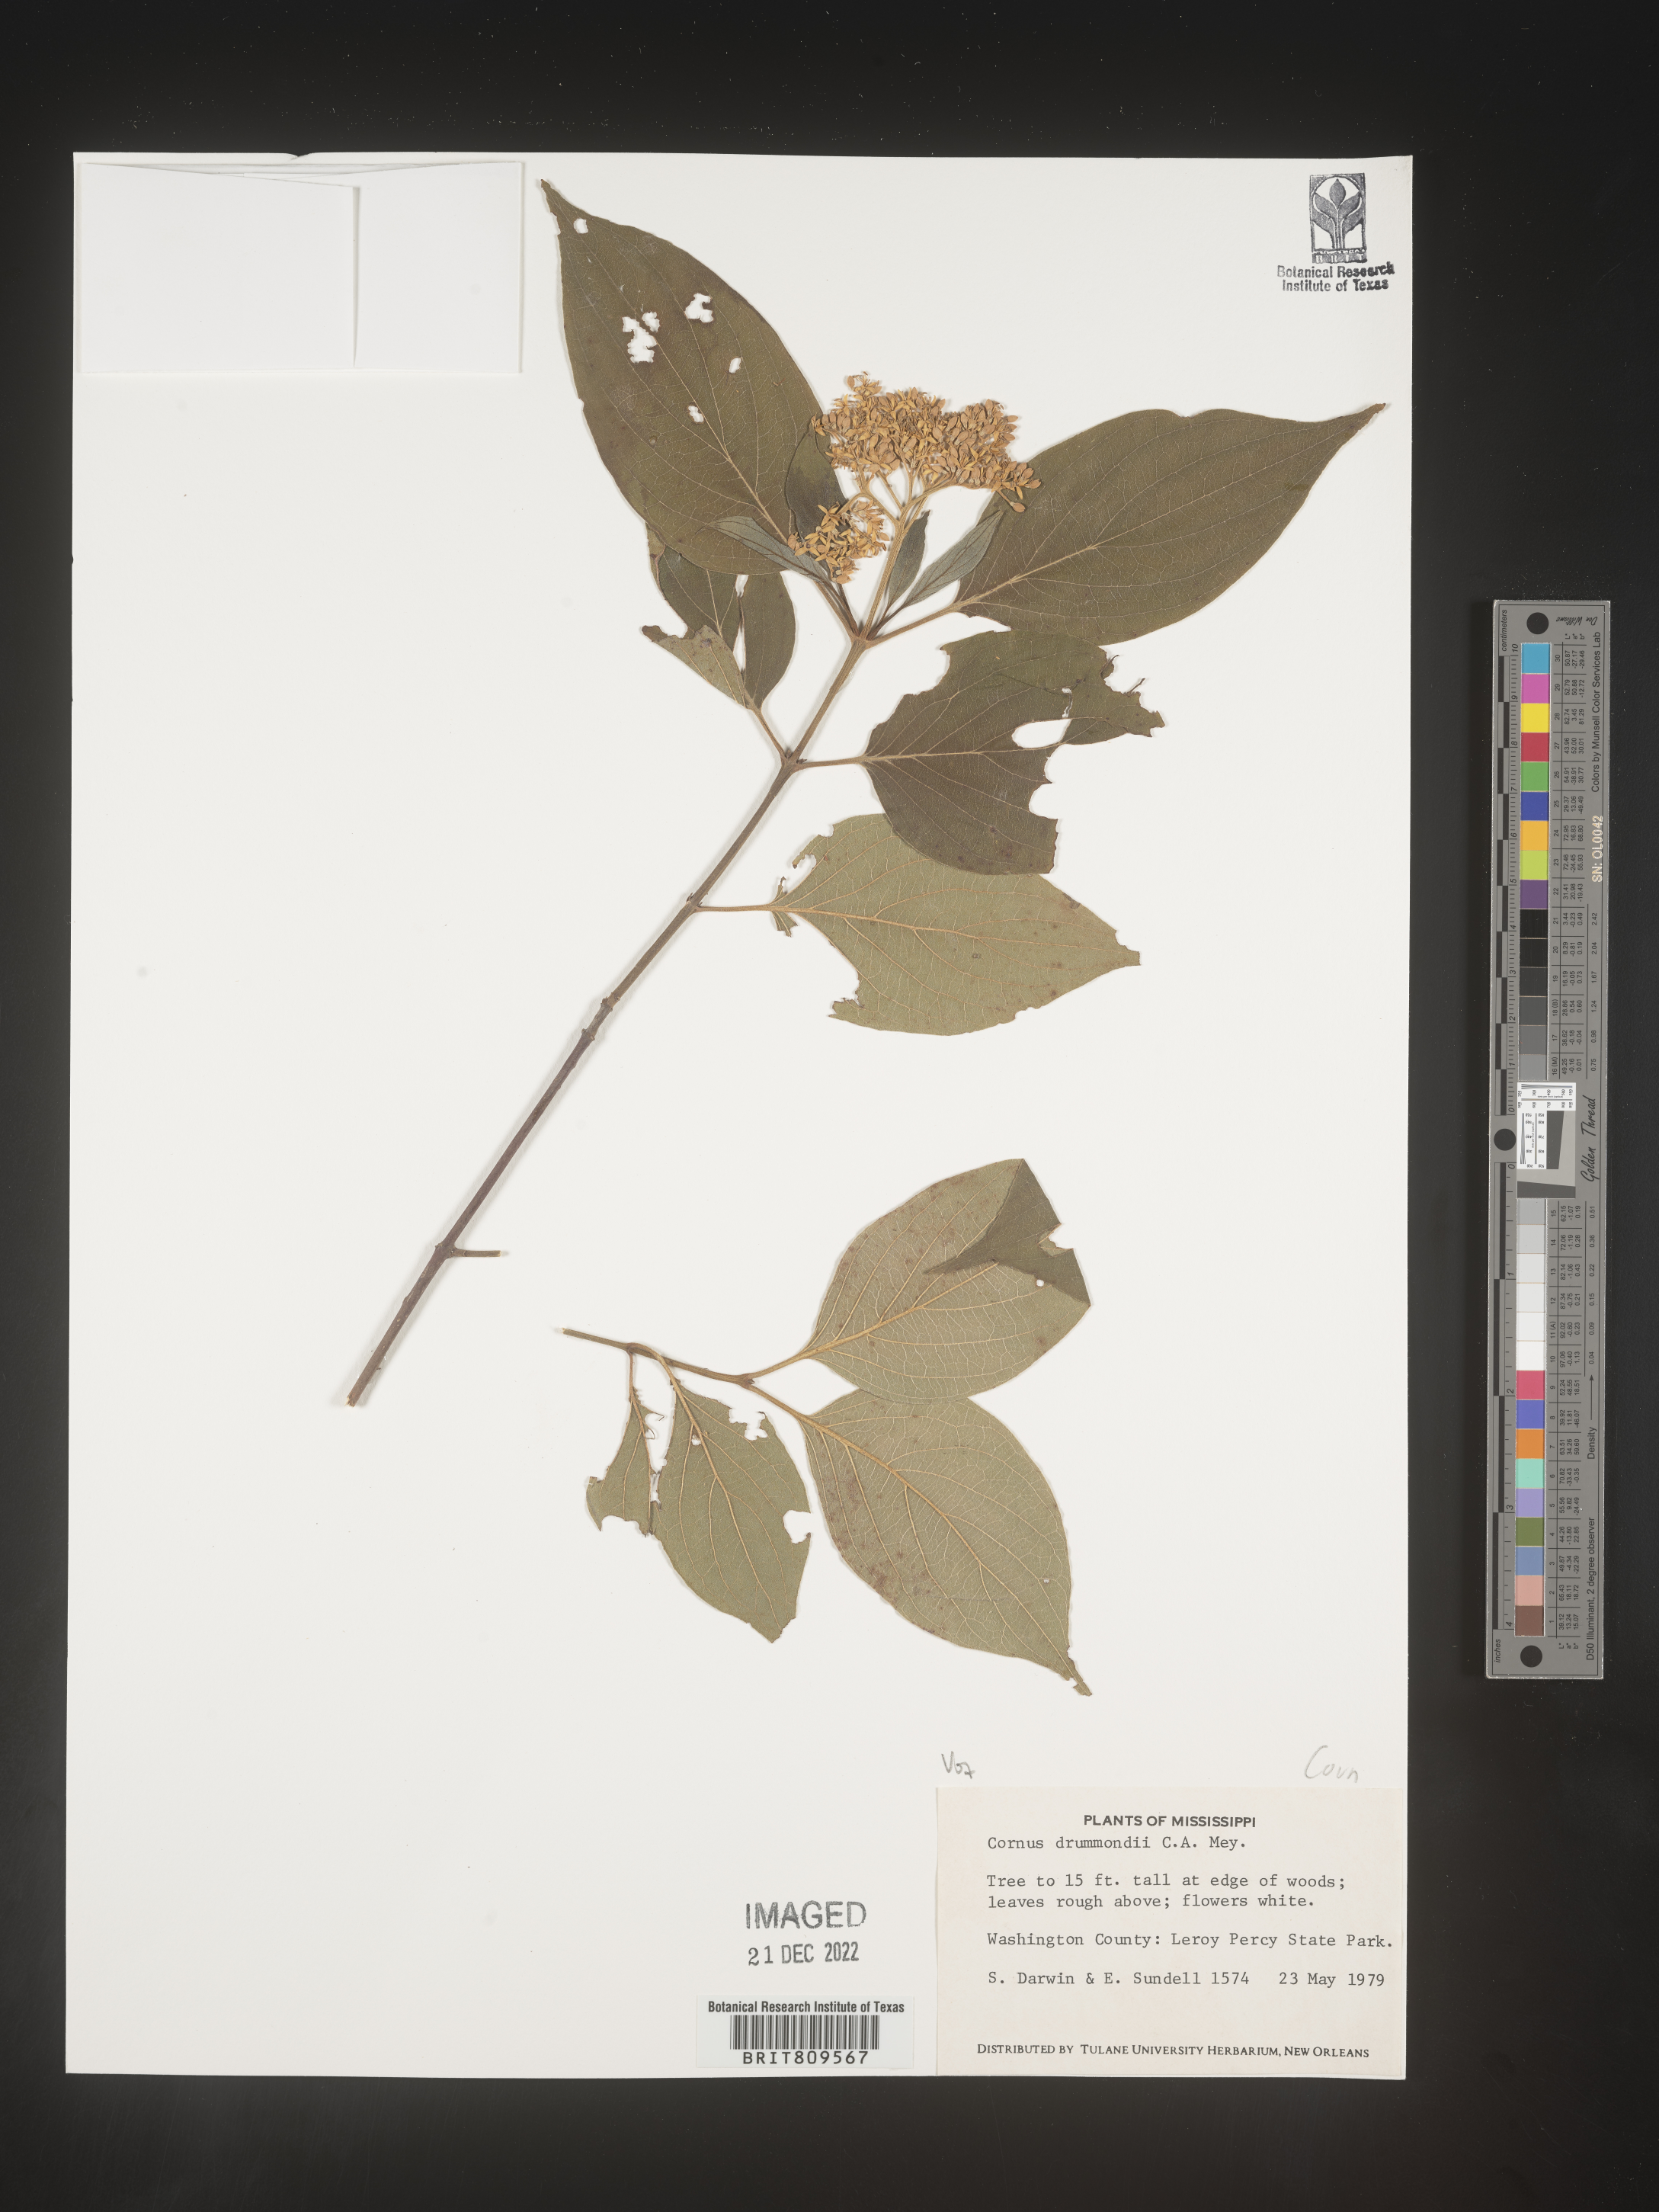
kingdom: Plantae
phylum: Tracheophyta
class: Magnoliopsida
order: Cornales
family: Cornaceae
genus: Cornus
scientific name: Cornus drummondii
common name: Rough-leaf dogwood
